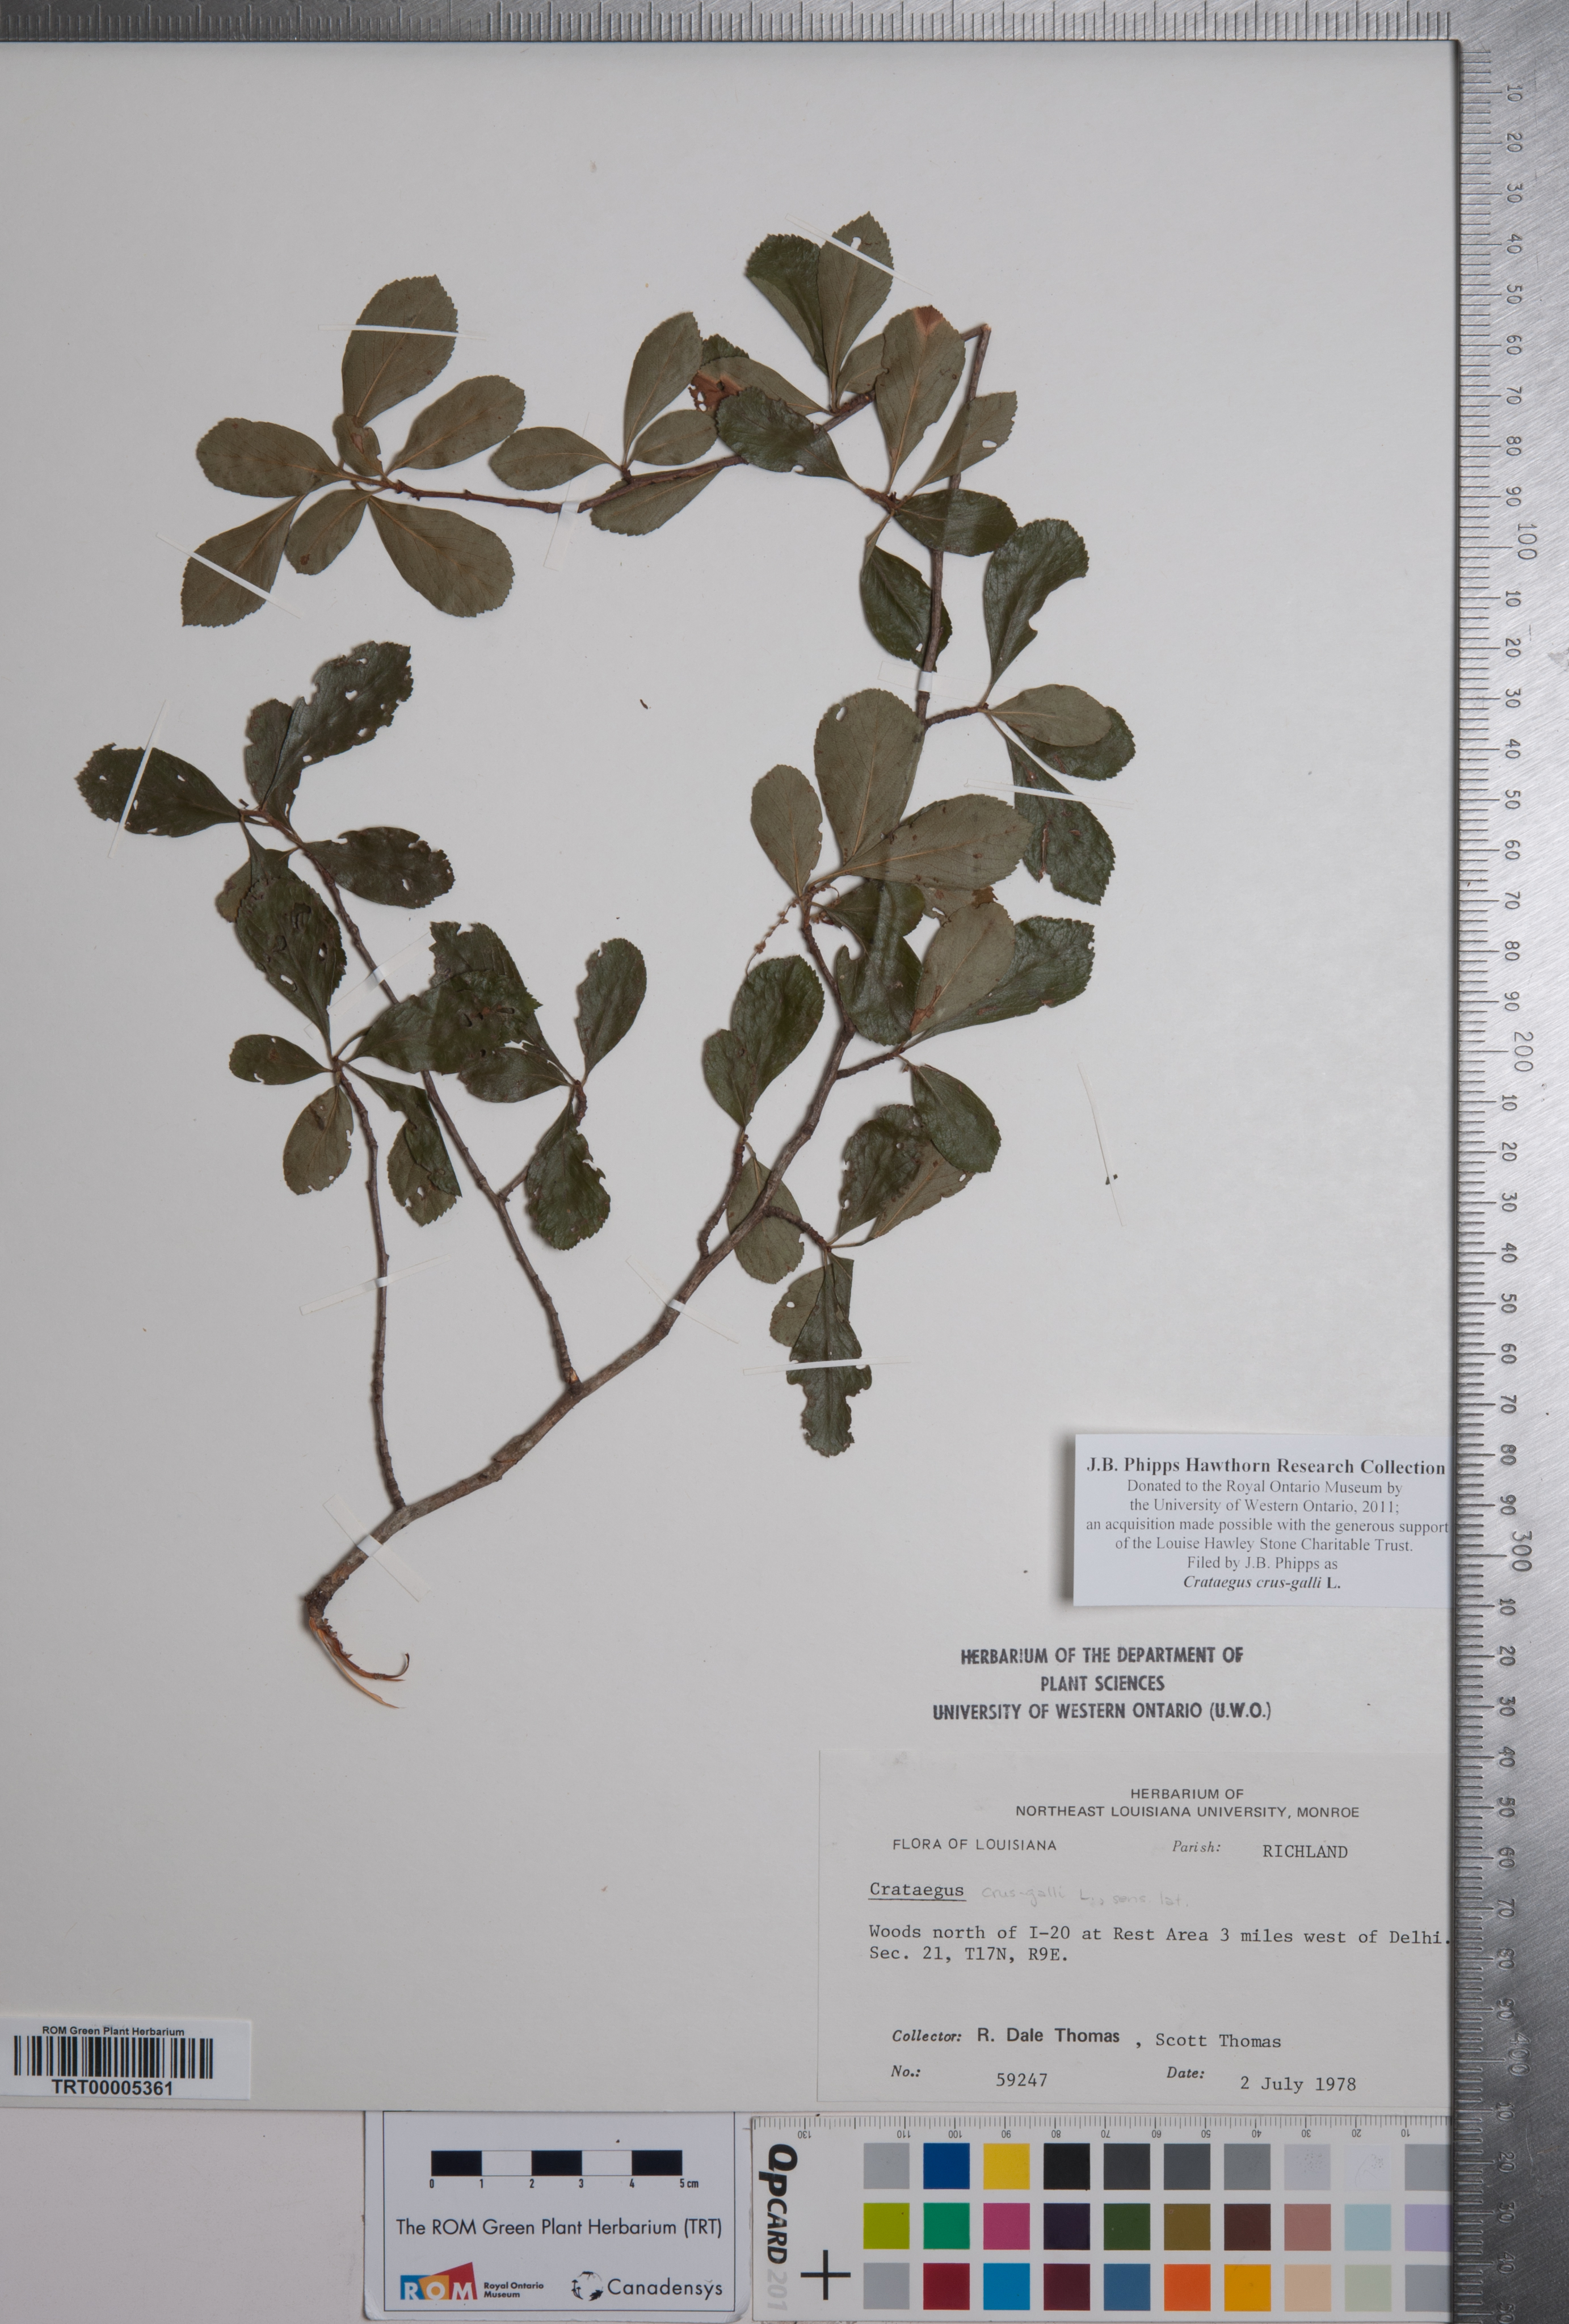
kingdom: Plantae
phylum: Tracheophyta
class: Magnoliopsida
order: Rosales
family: Rosaceae
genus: Crataegus
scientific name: Crataegus crus-galli
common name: Cockspurthorn
